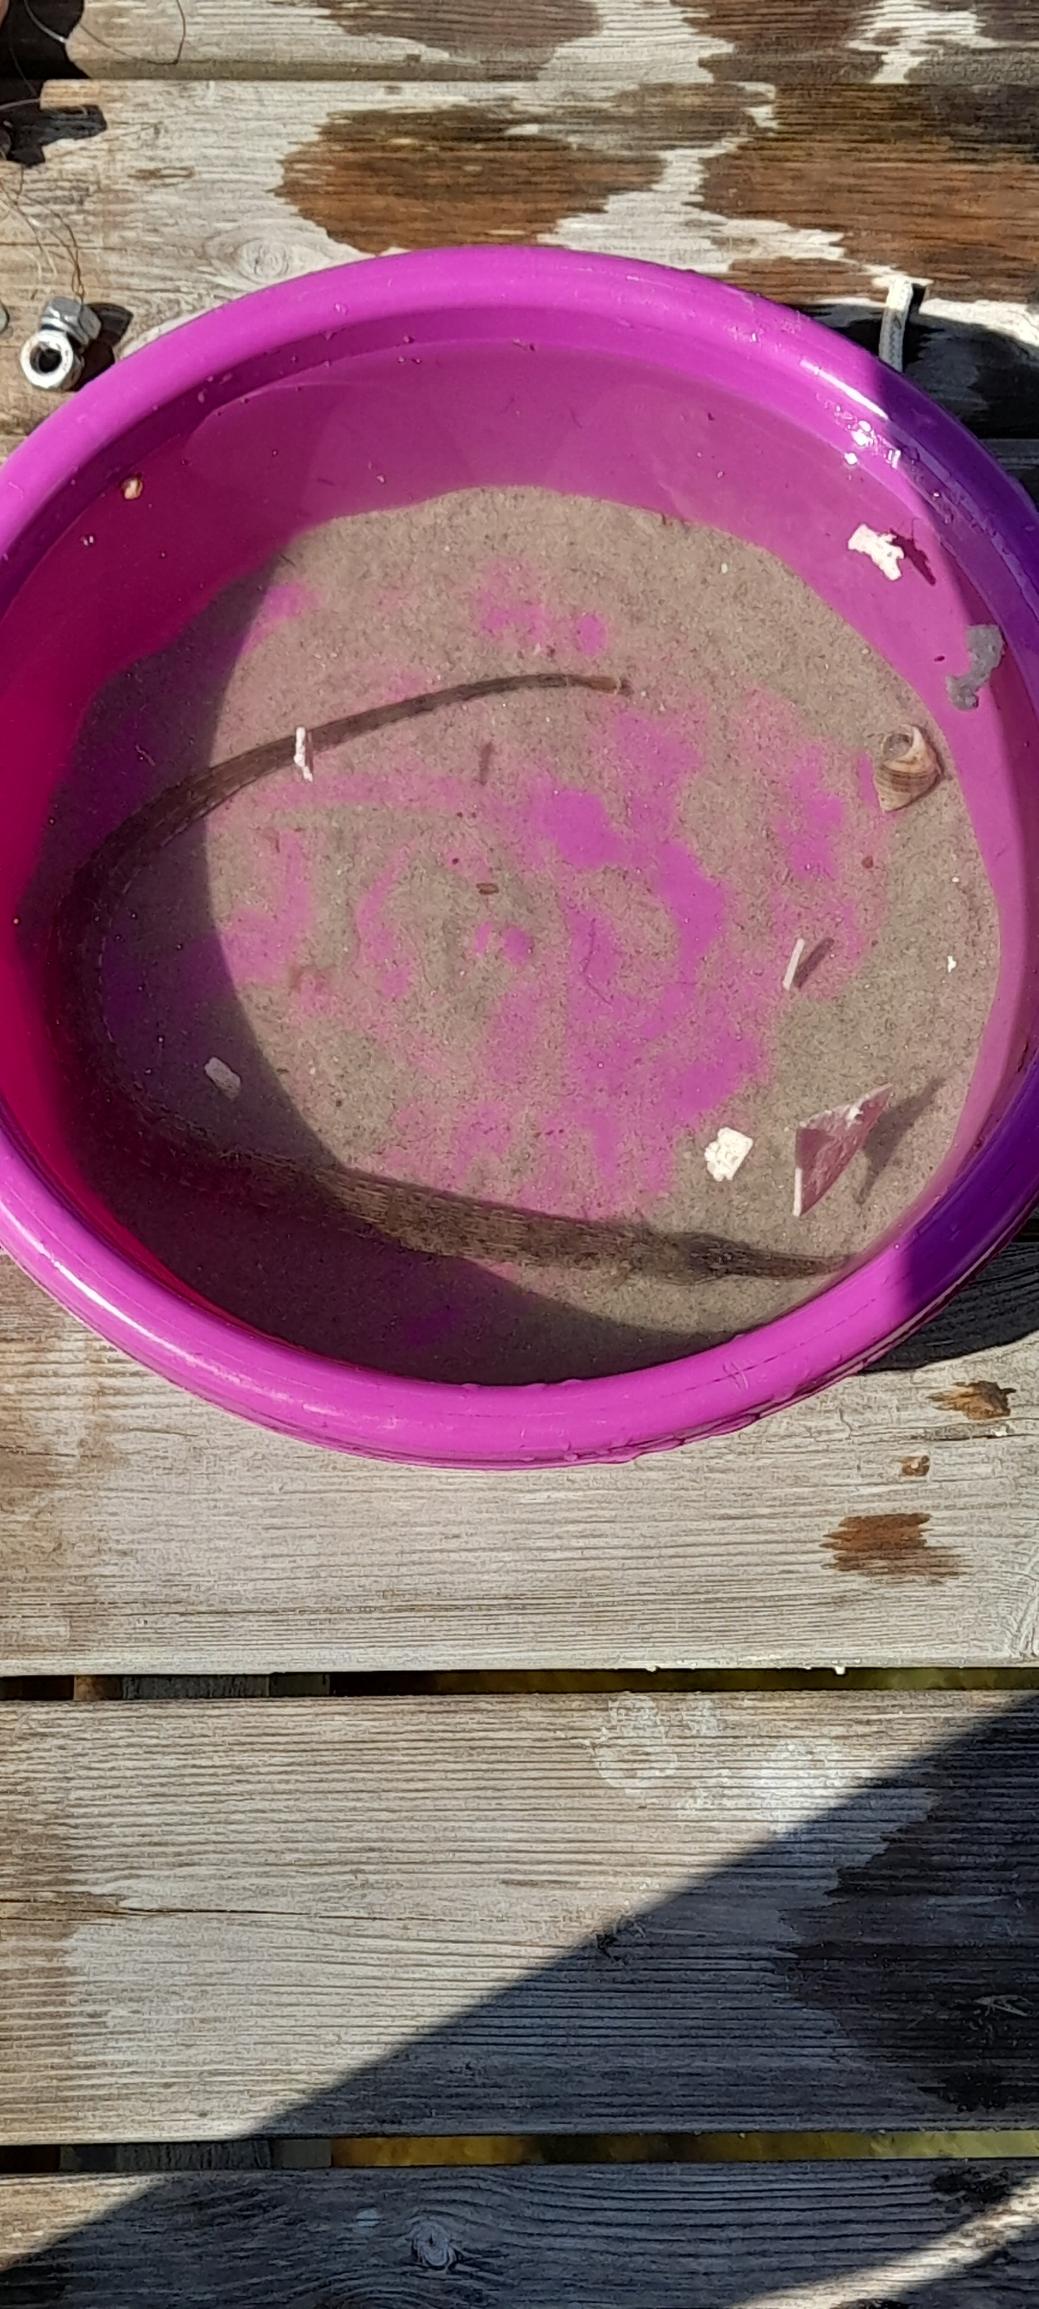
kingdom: Animalia
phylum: Chordata
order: Syngnathiformes
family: Syngnathidae
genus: Syngnathus
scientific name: Syngnathus acus
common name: Stor tangnål
